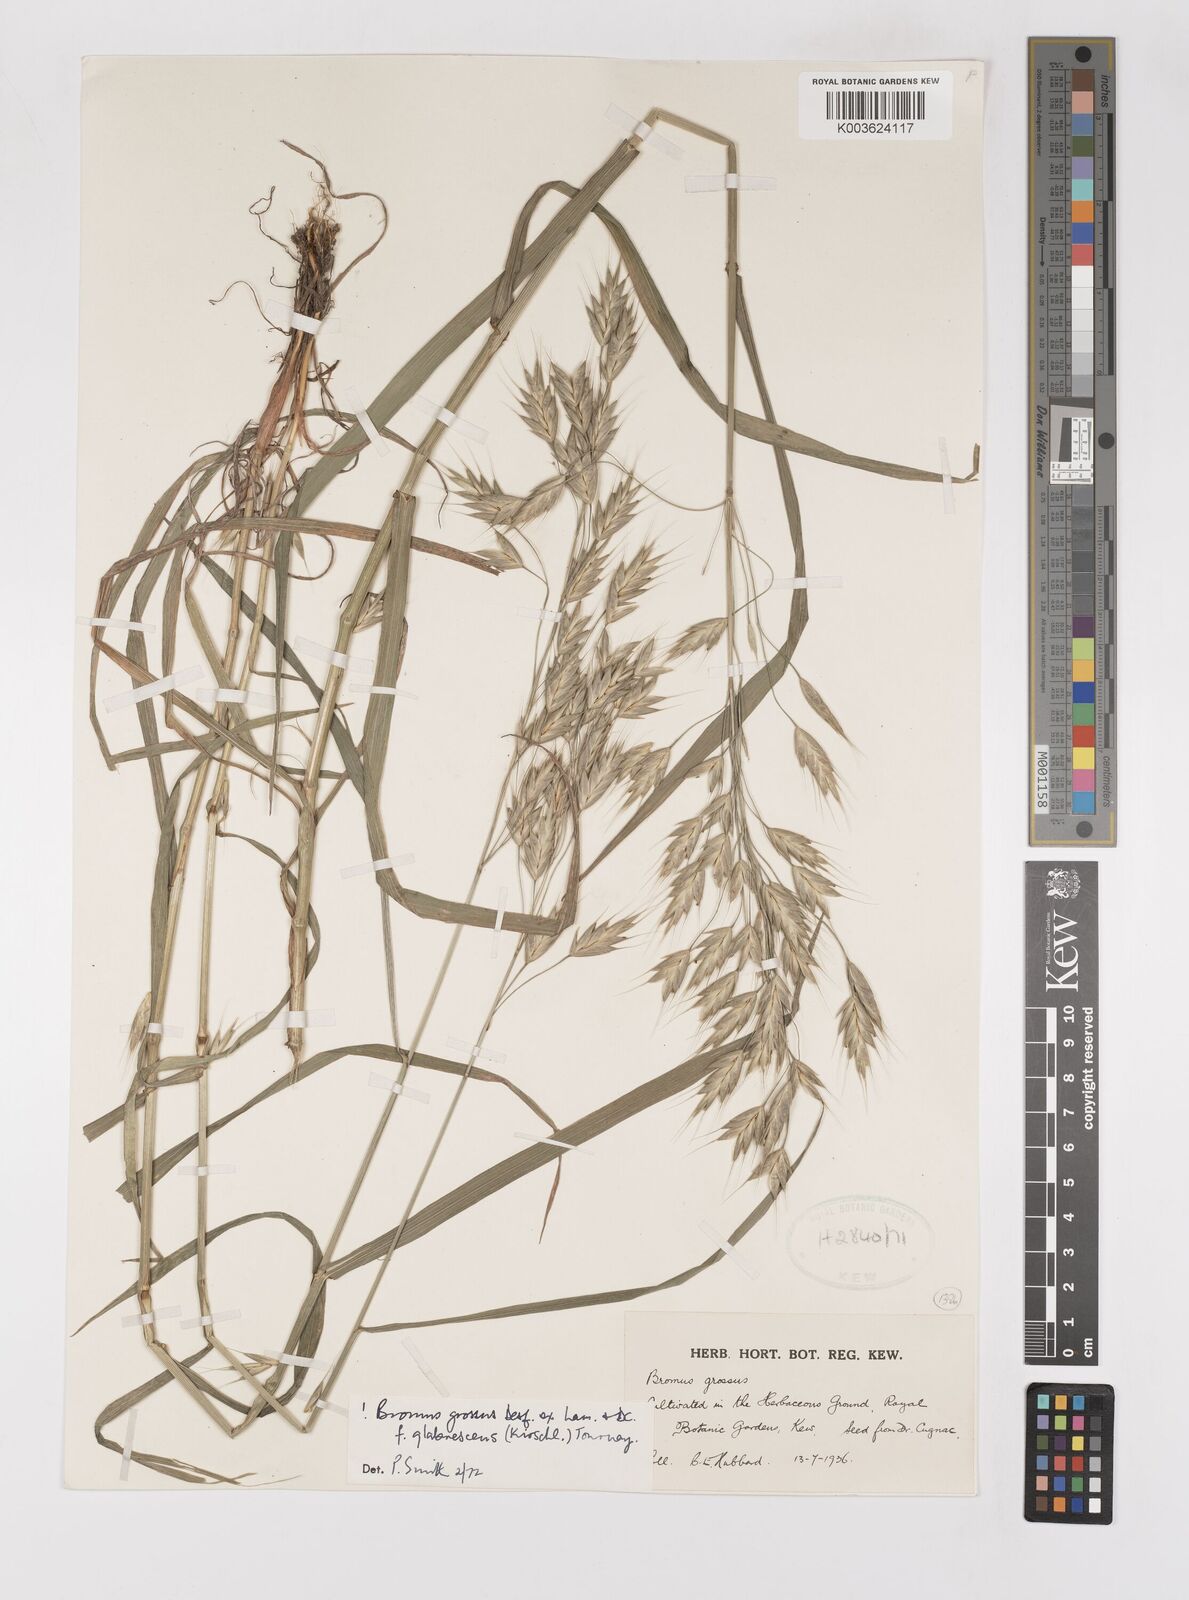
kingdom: Plantae
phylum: Tracheophyta
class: Liliopsida
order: Poales
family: Poaceae
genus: Bromus
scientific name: Bromus grossus
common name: Whiskered brome
